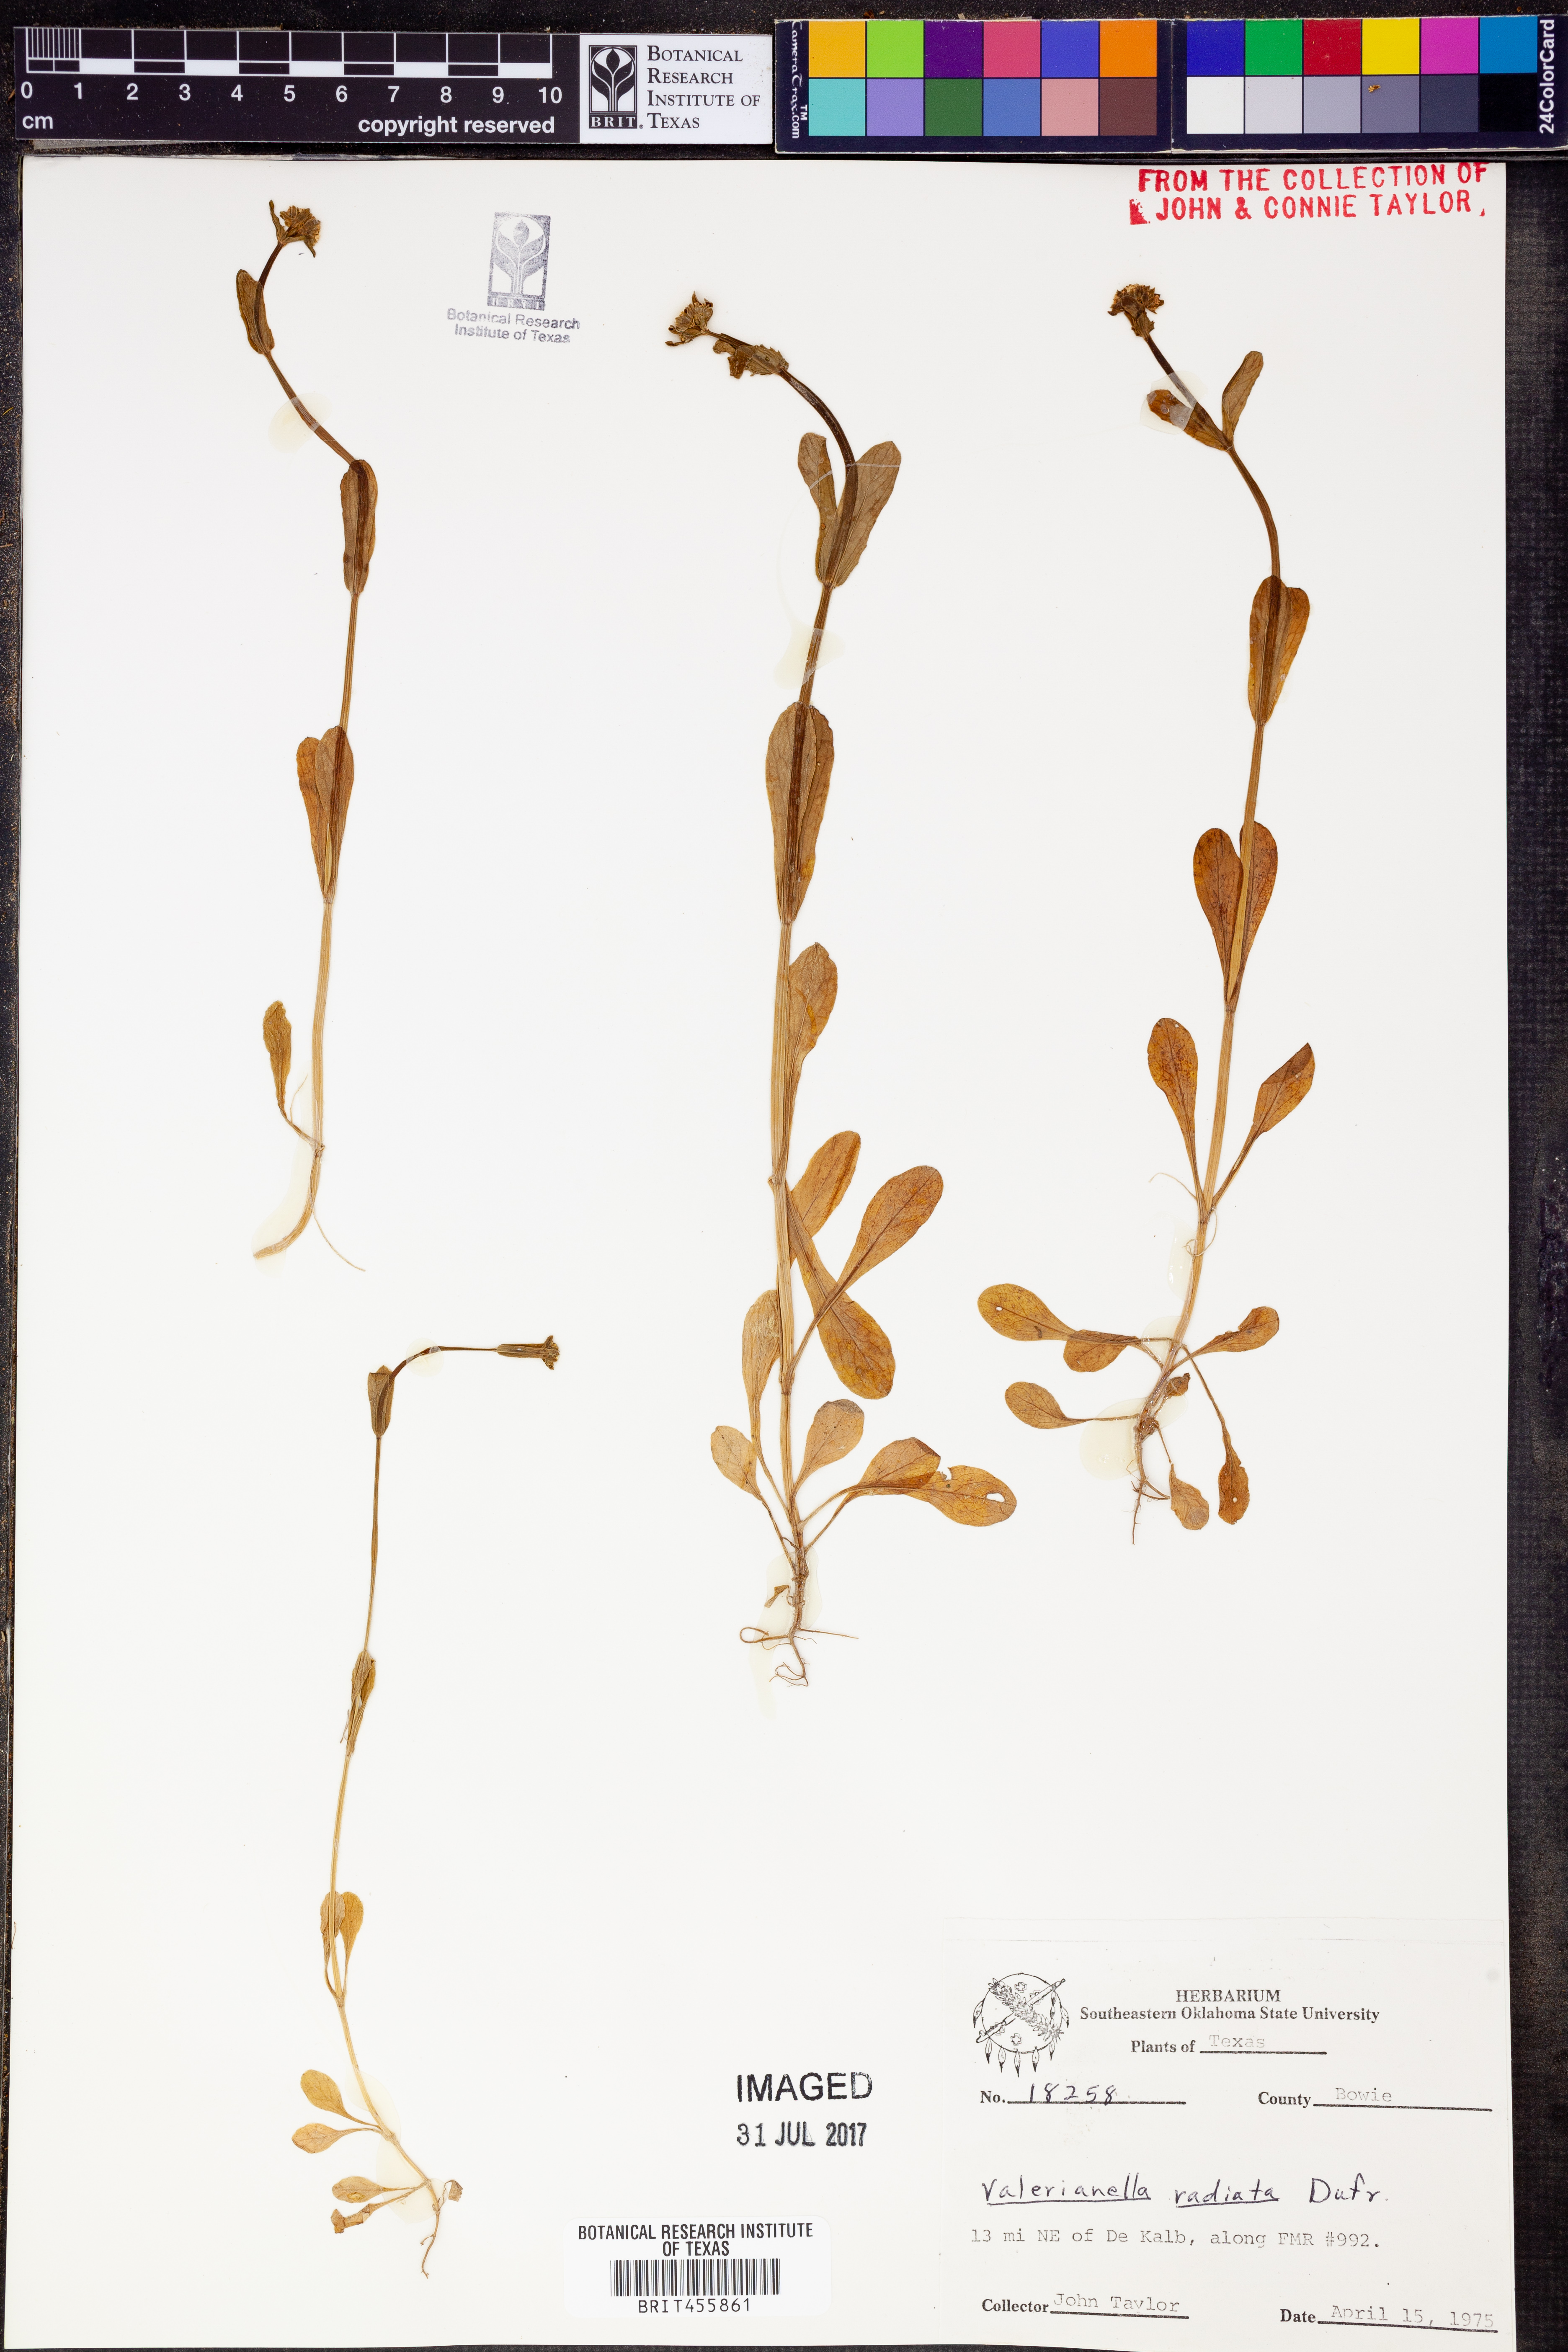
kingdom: Plantae
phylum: Tracheophyta
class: Magnoliopsida
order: Dipsacales
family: Caprifoliaceae
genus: Valerianella
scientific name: Valerianella radiata
